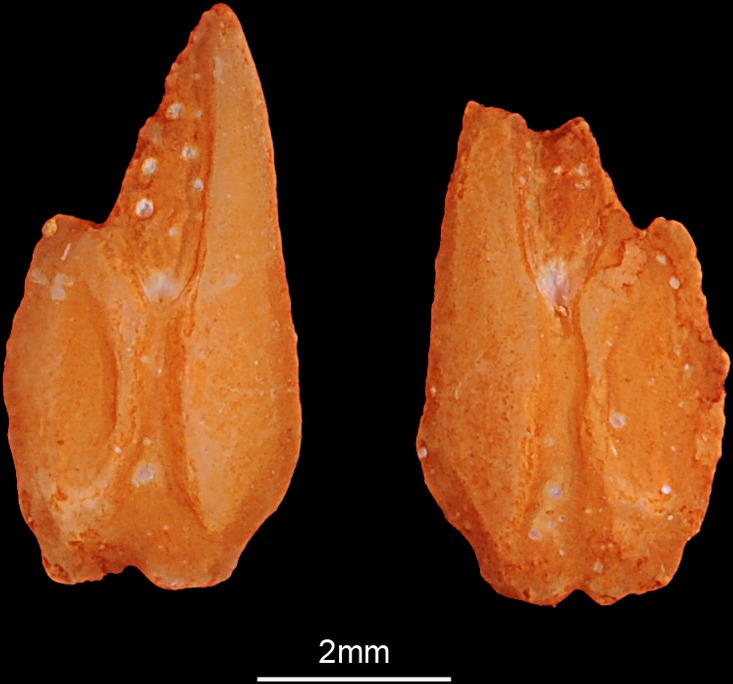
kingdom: Animalia
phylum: Chordata
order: Salmoniformes
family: Salmonidae
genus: Coregonus
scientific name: Coregonus lavaretus
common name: Schelly
